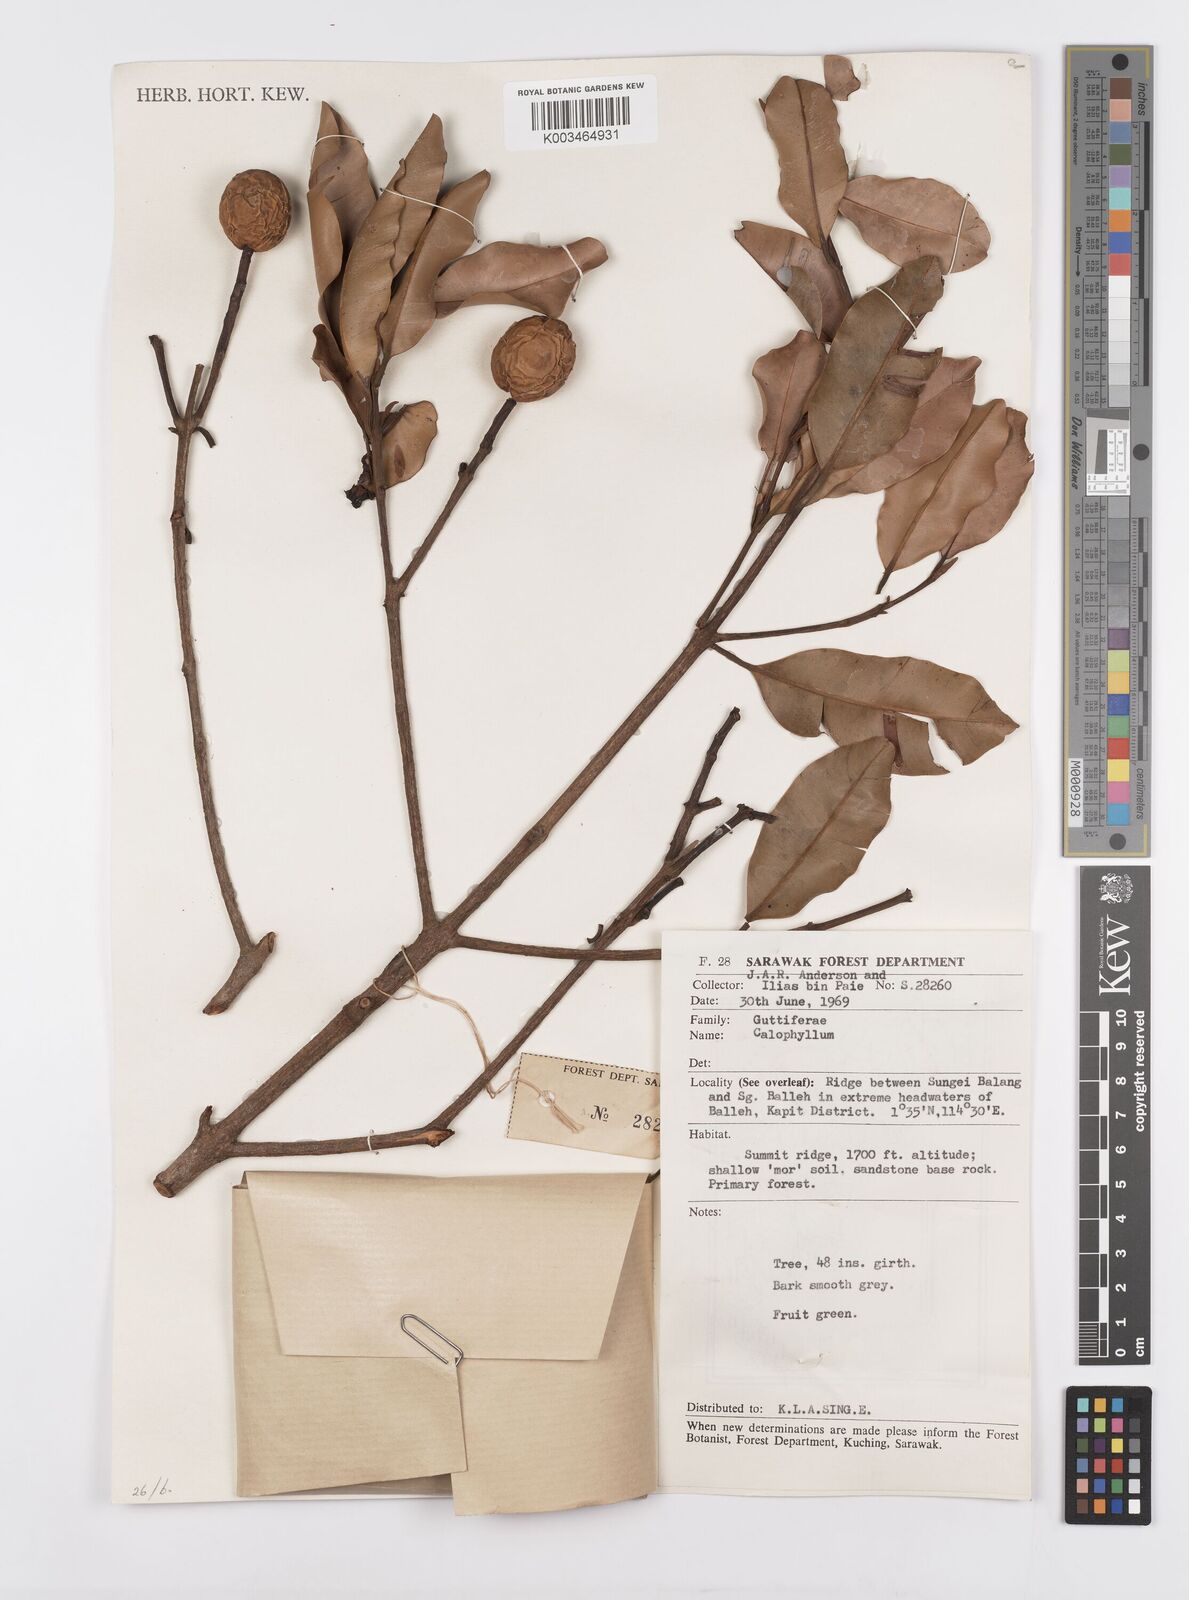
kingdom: Plantae
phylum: Tracheophyta
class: Magnoliopsida
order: Malpighiales
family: Calophyllaceae
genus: Calophyllum
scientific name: Calophyllum biflorum
